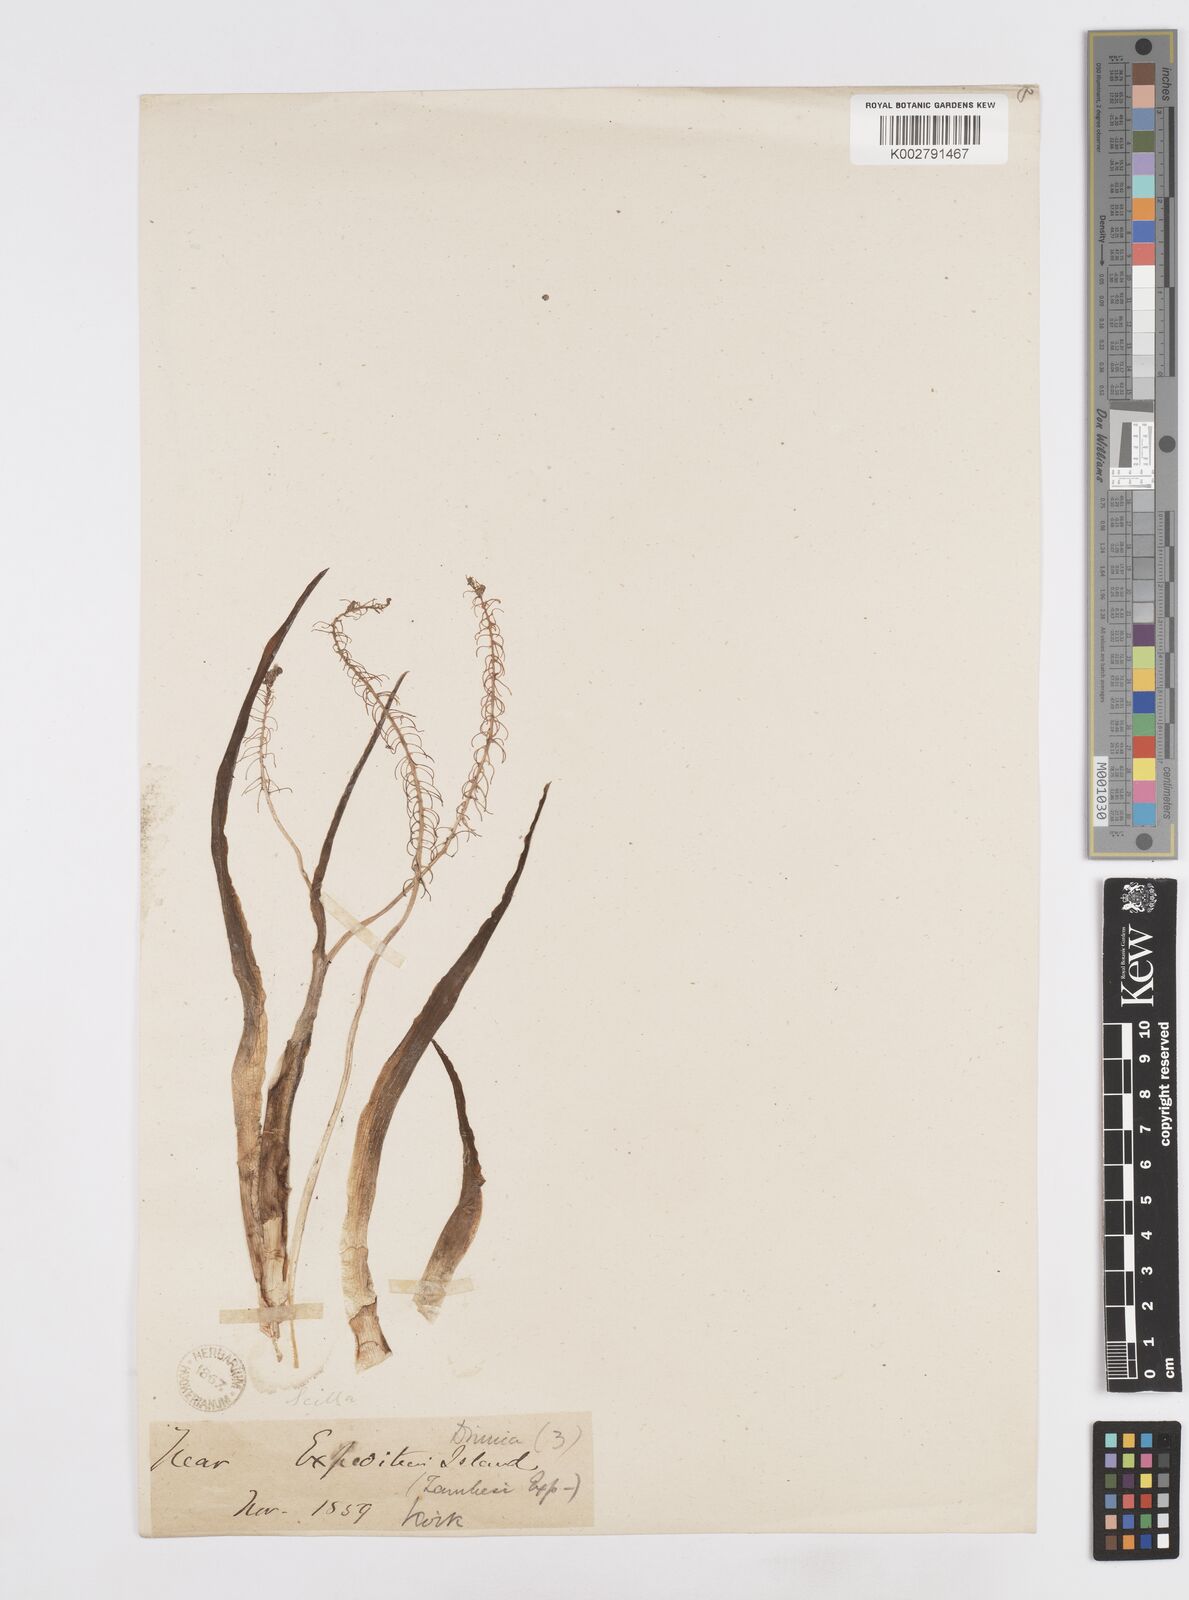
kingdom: Plantae
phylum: Tracheophyta
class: Liliopsida
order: Asparagales
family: Asparagaceae
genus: Scilla
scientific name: Scilla
